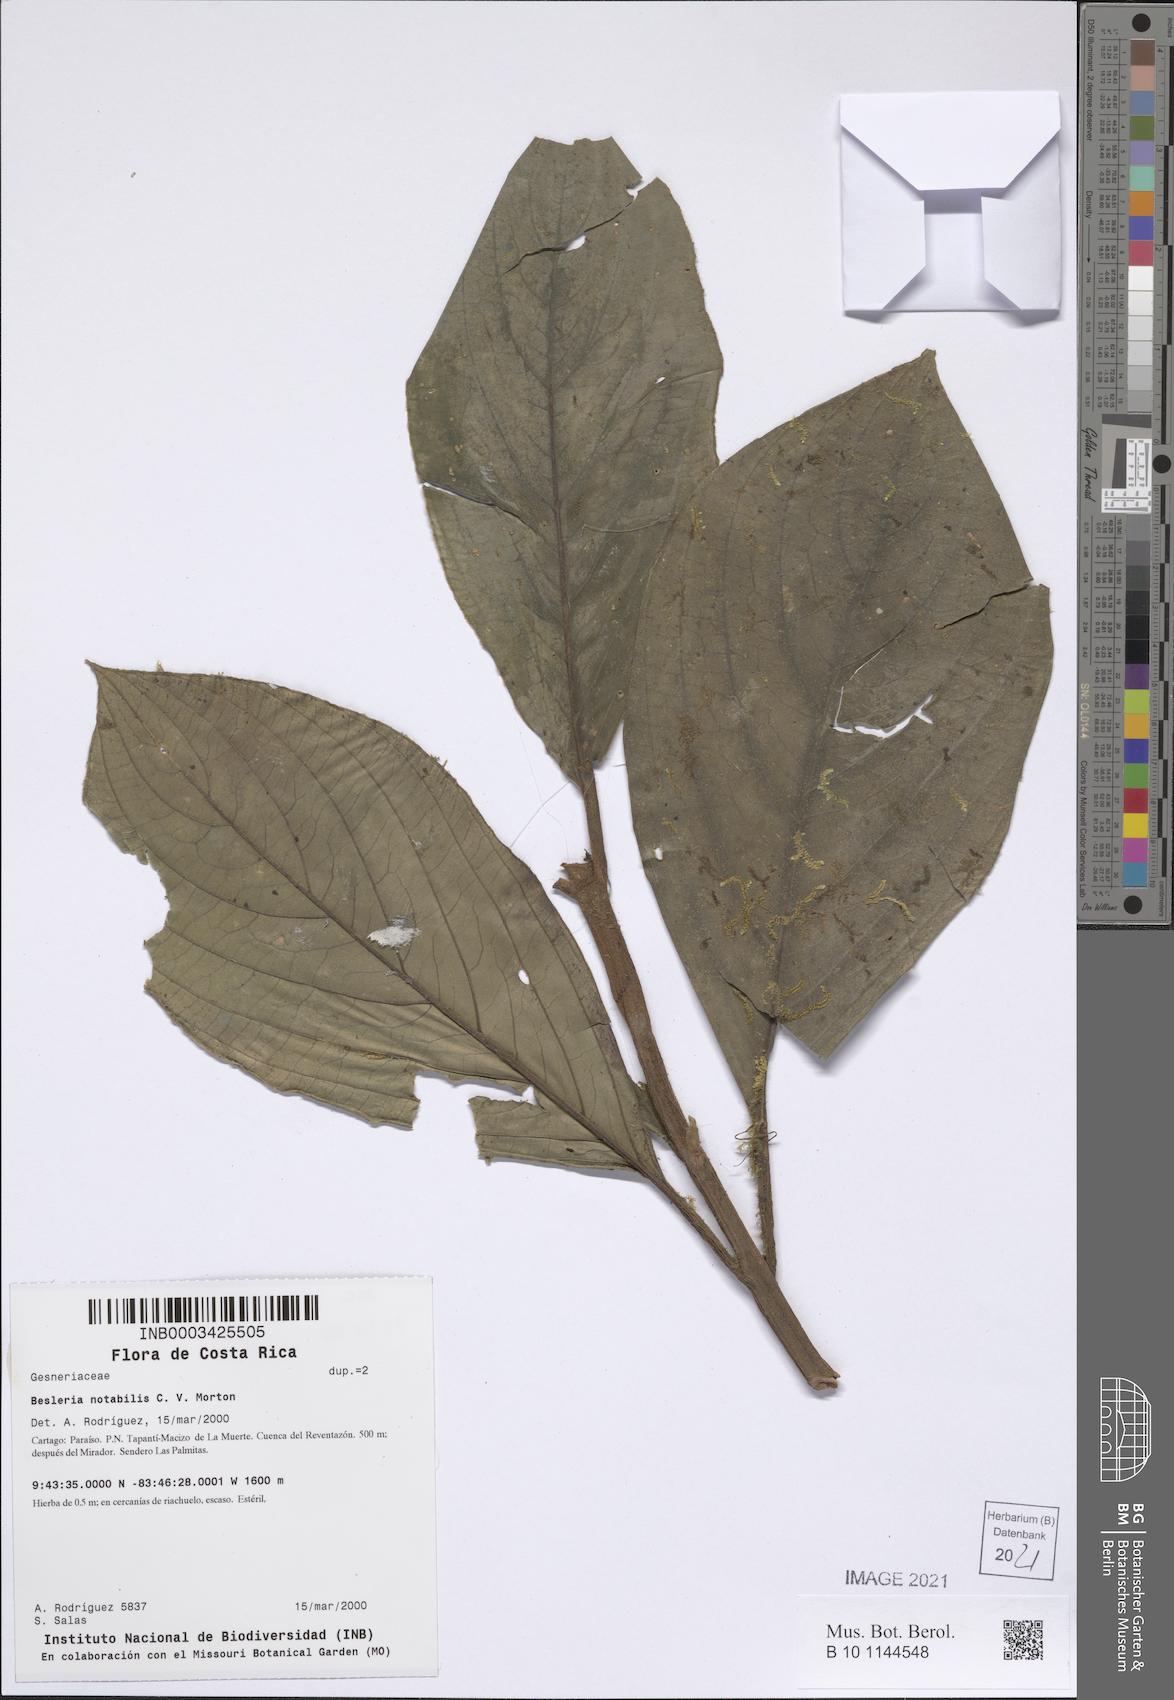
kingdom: Plantae
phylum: Tracheophyta
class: Magnoliopsida
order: Lamiales
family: Gesneriaceae
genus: Besleria
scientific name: Besleria notabilis
